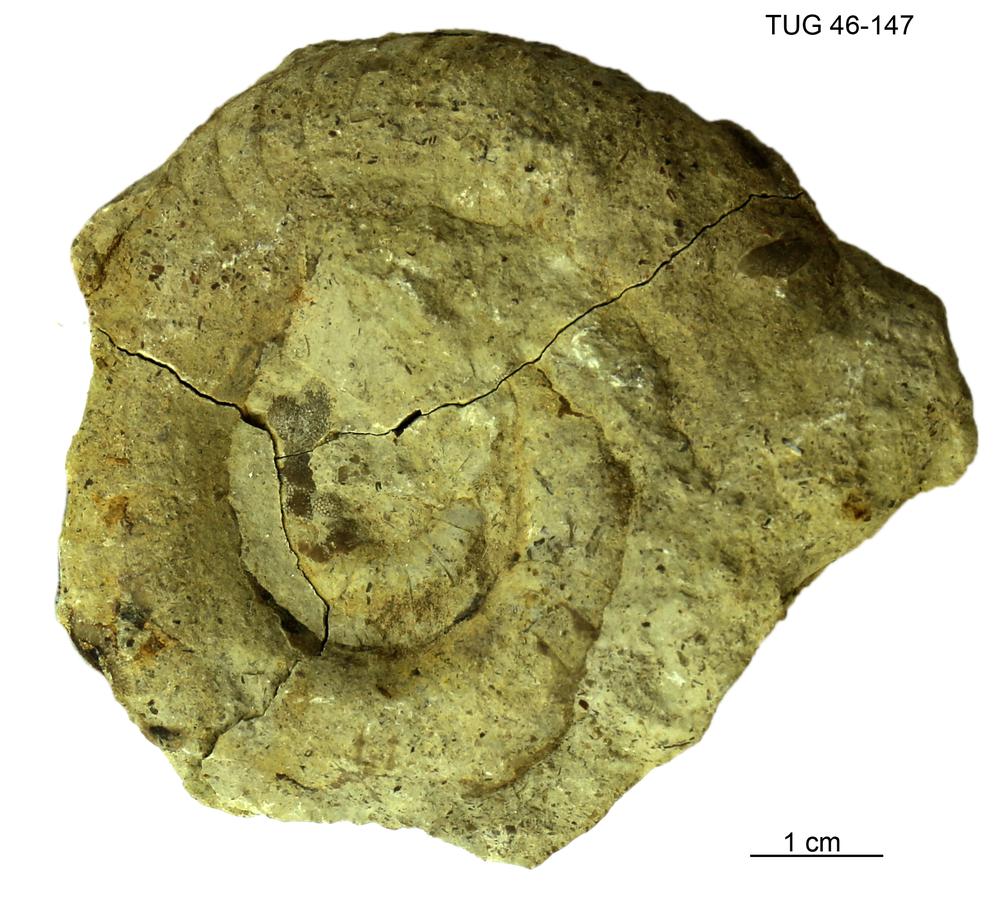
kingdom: Animalia
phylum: Mollusca
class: Cephalopoda
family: Trocholitidae
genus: Schroederoceras
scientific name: Schroederoceras
